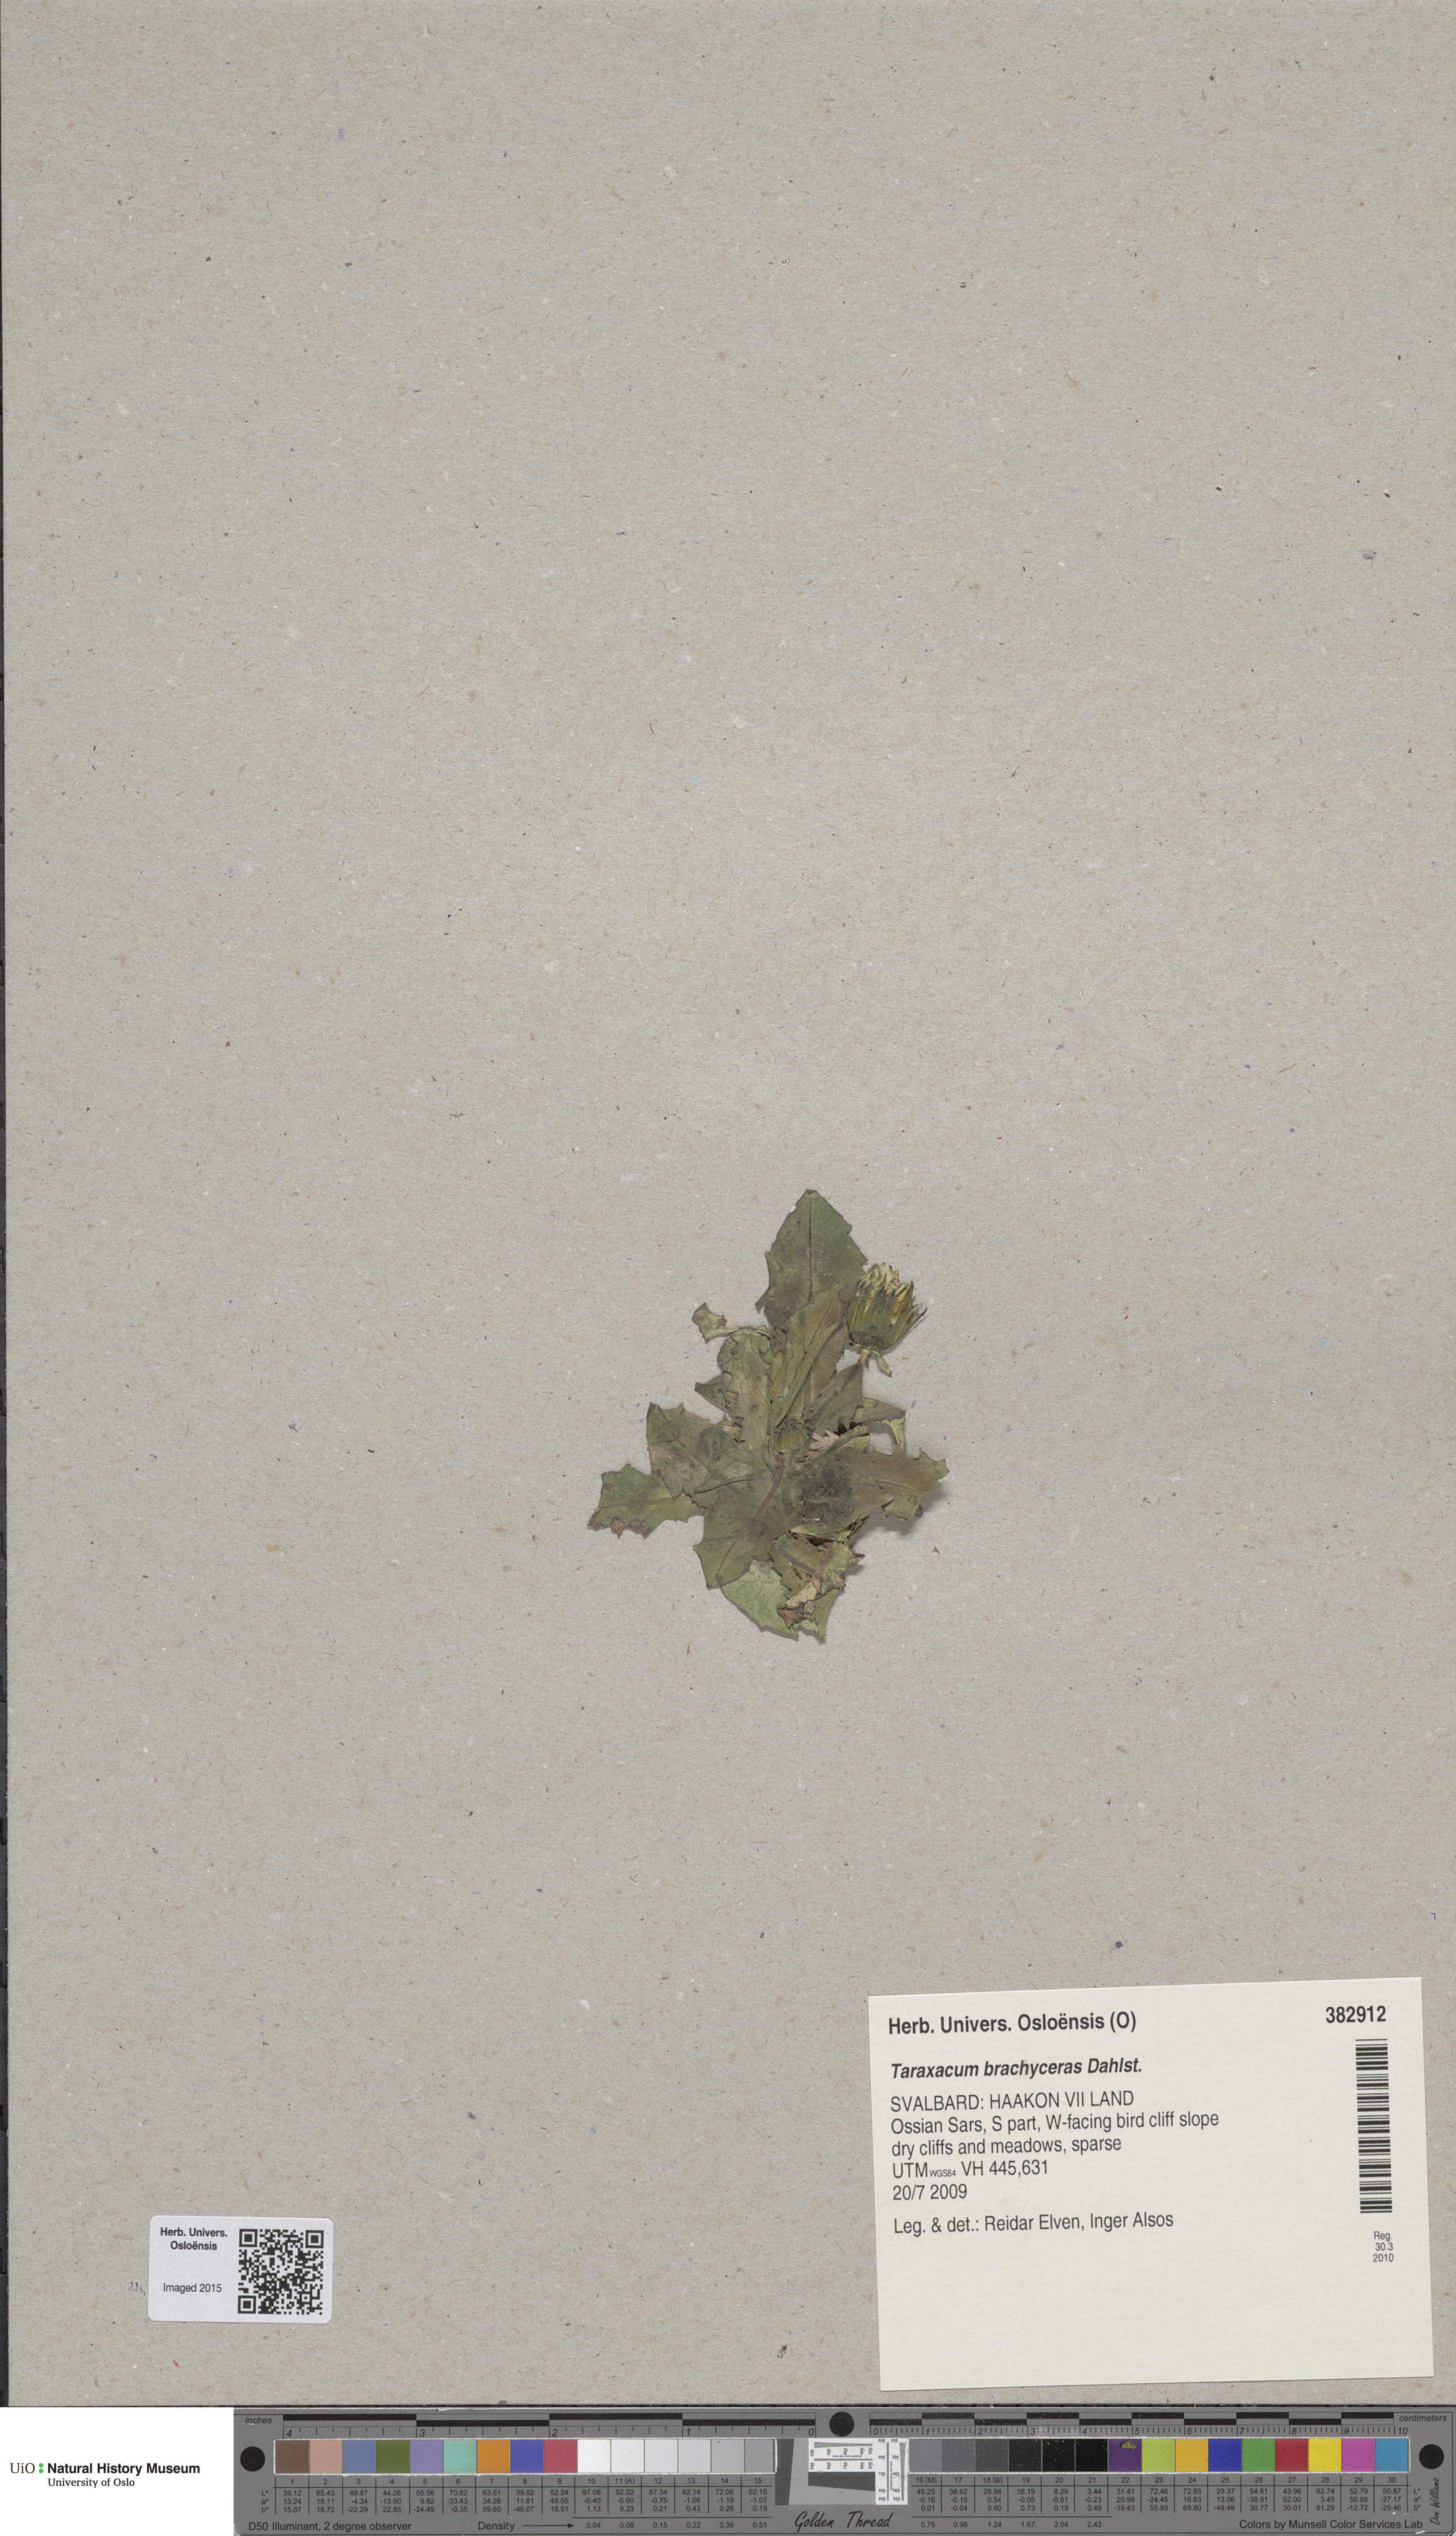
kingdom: Plantae
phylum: Tracheophyta
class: Magnoliopsida
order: Asterales
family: Asteraceae
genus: Taraxacum
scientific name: Taraxacum brachyceras
